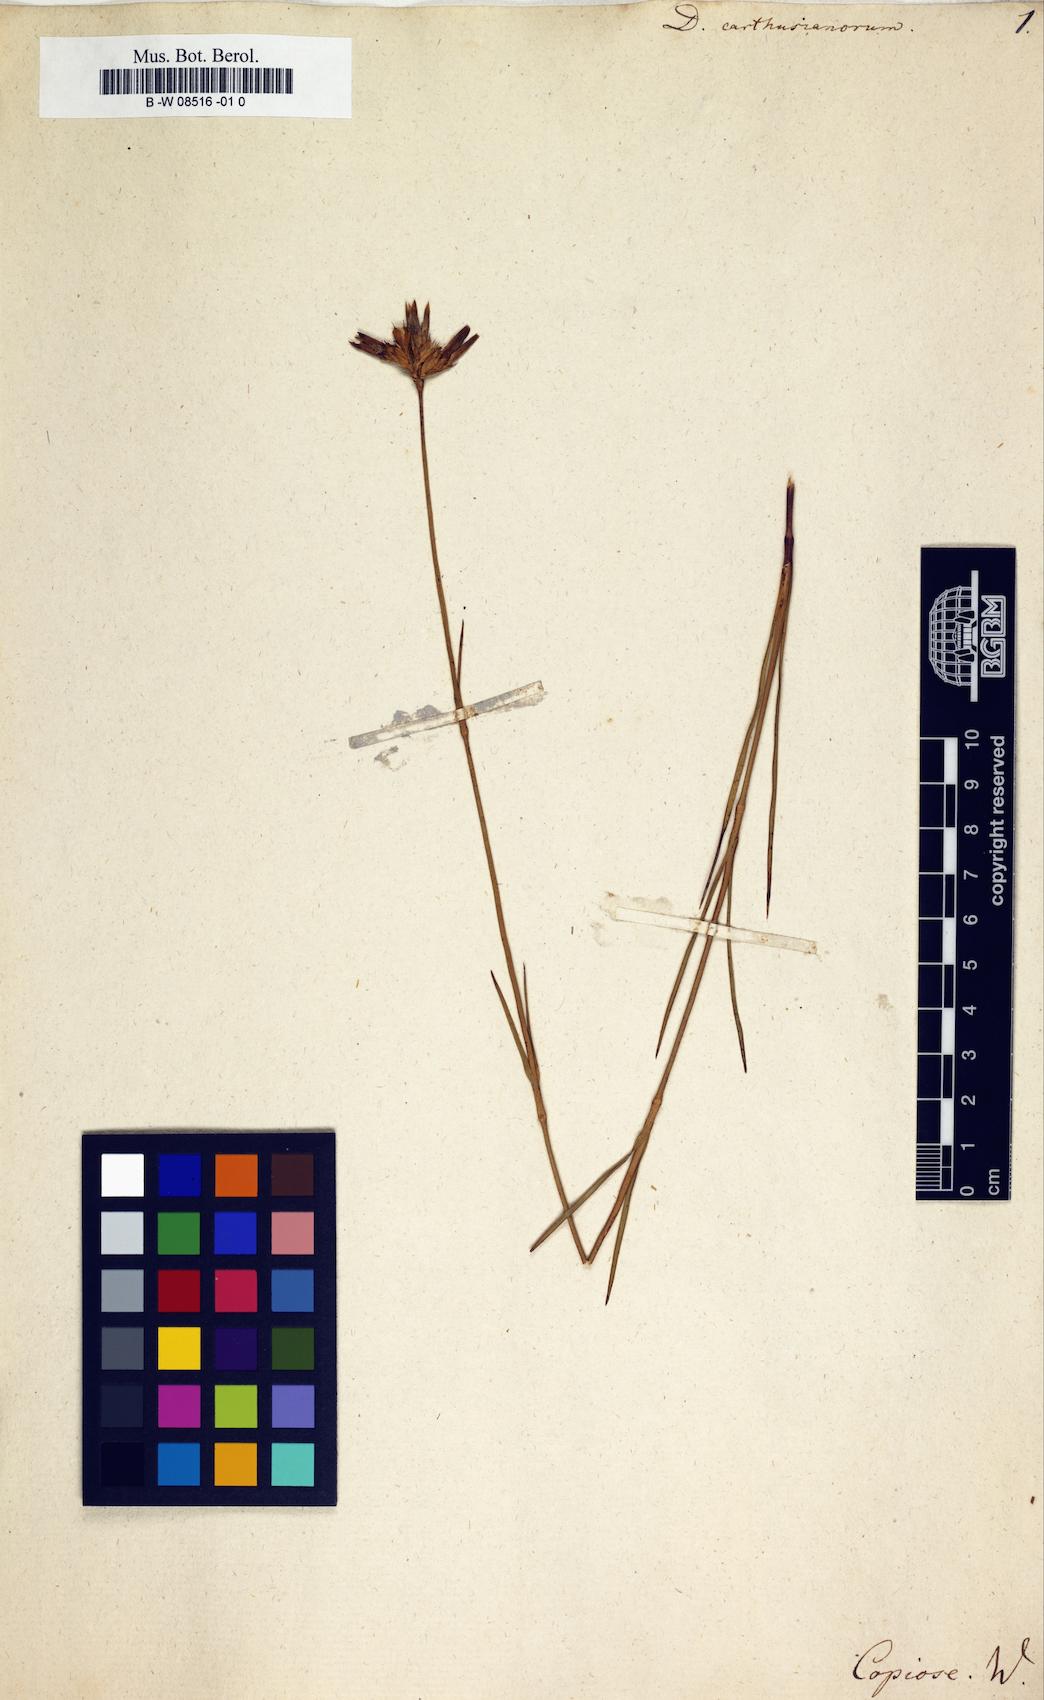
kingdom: Plantae
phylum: Tracheophyta
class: Magnoliopsida
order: Caryophyllales
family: Caryophyllaceae
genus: Dianthus
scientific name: Dianthus carthusianorum
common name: Carthusian pink
